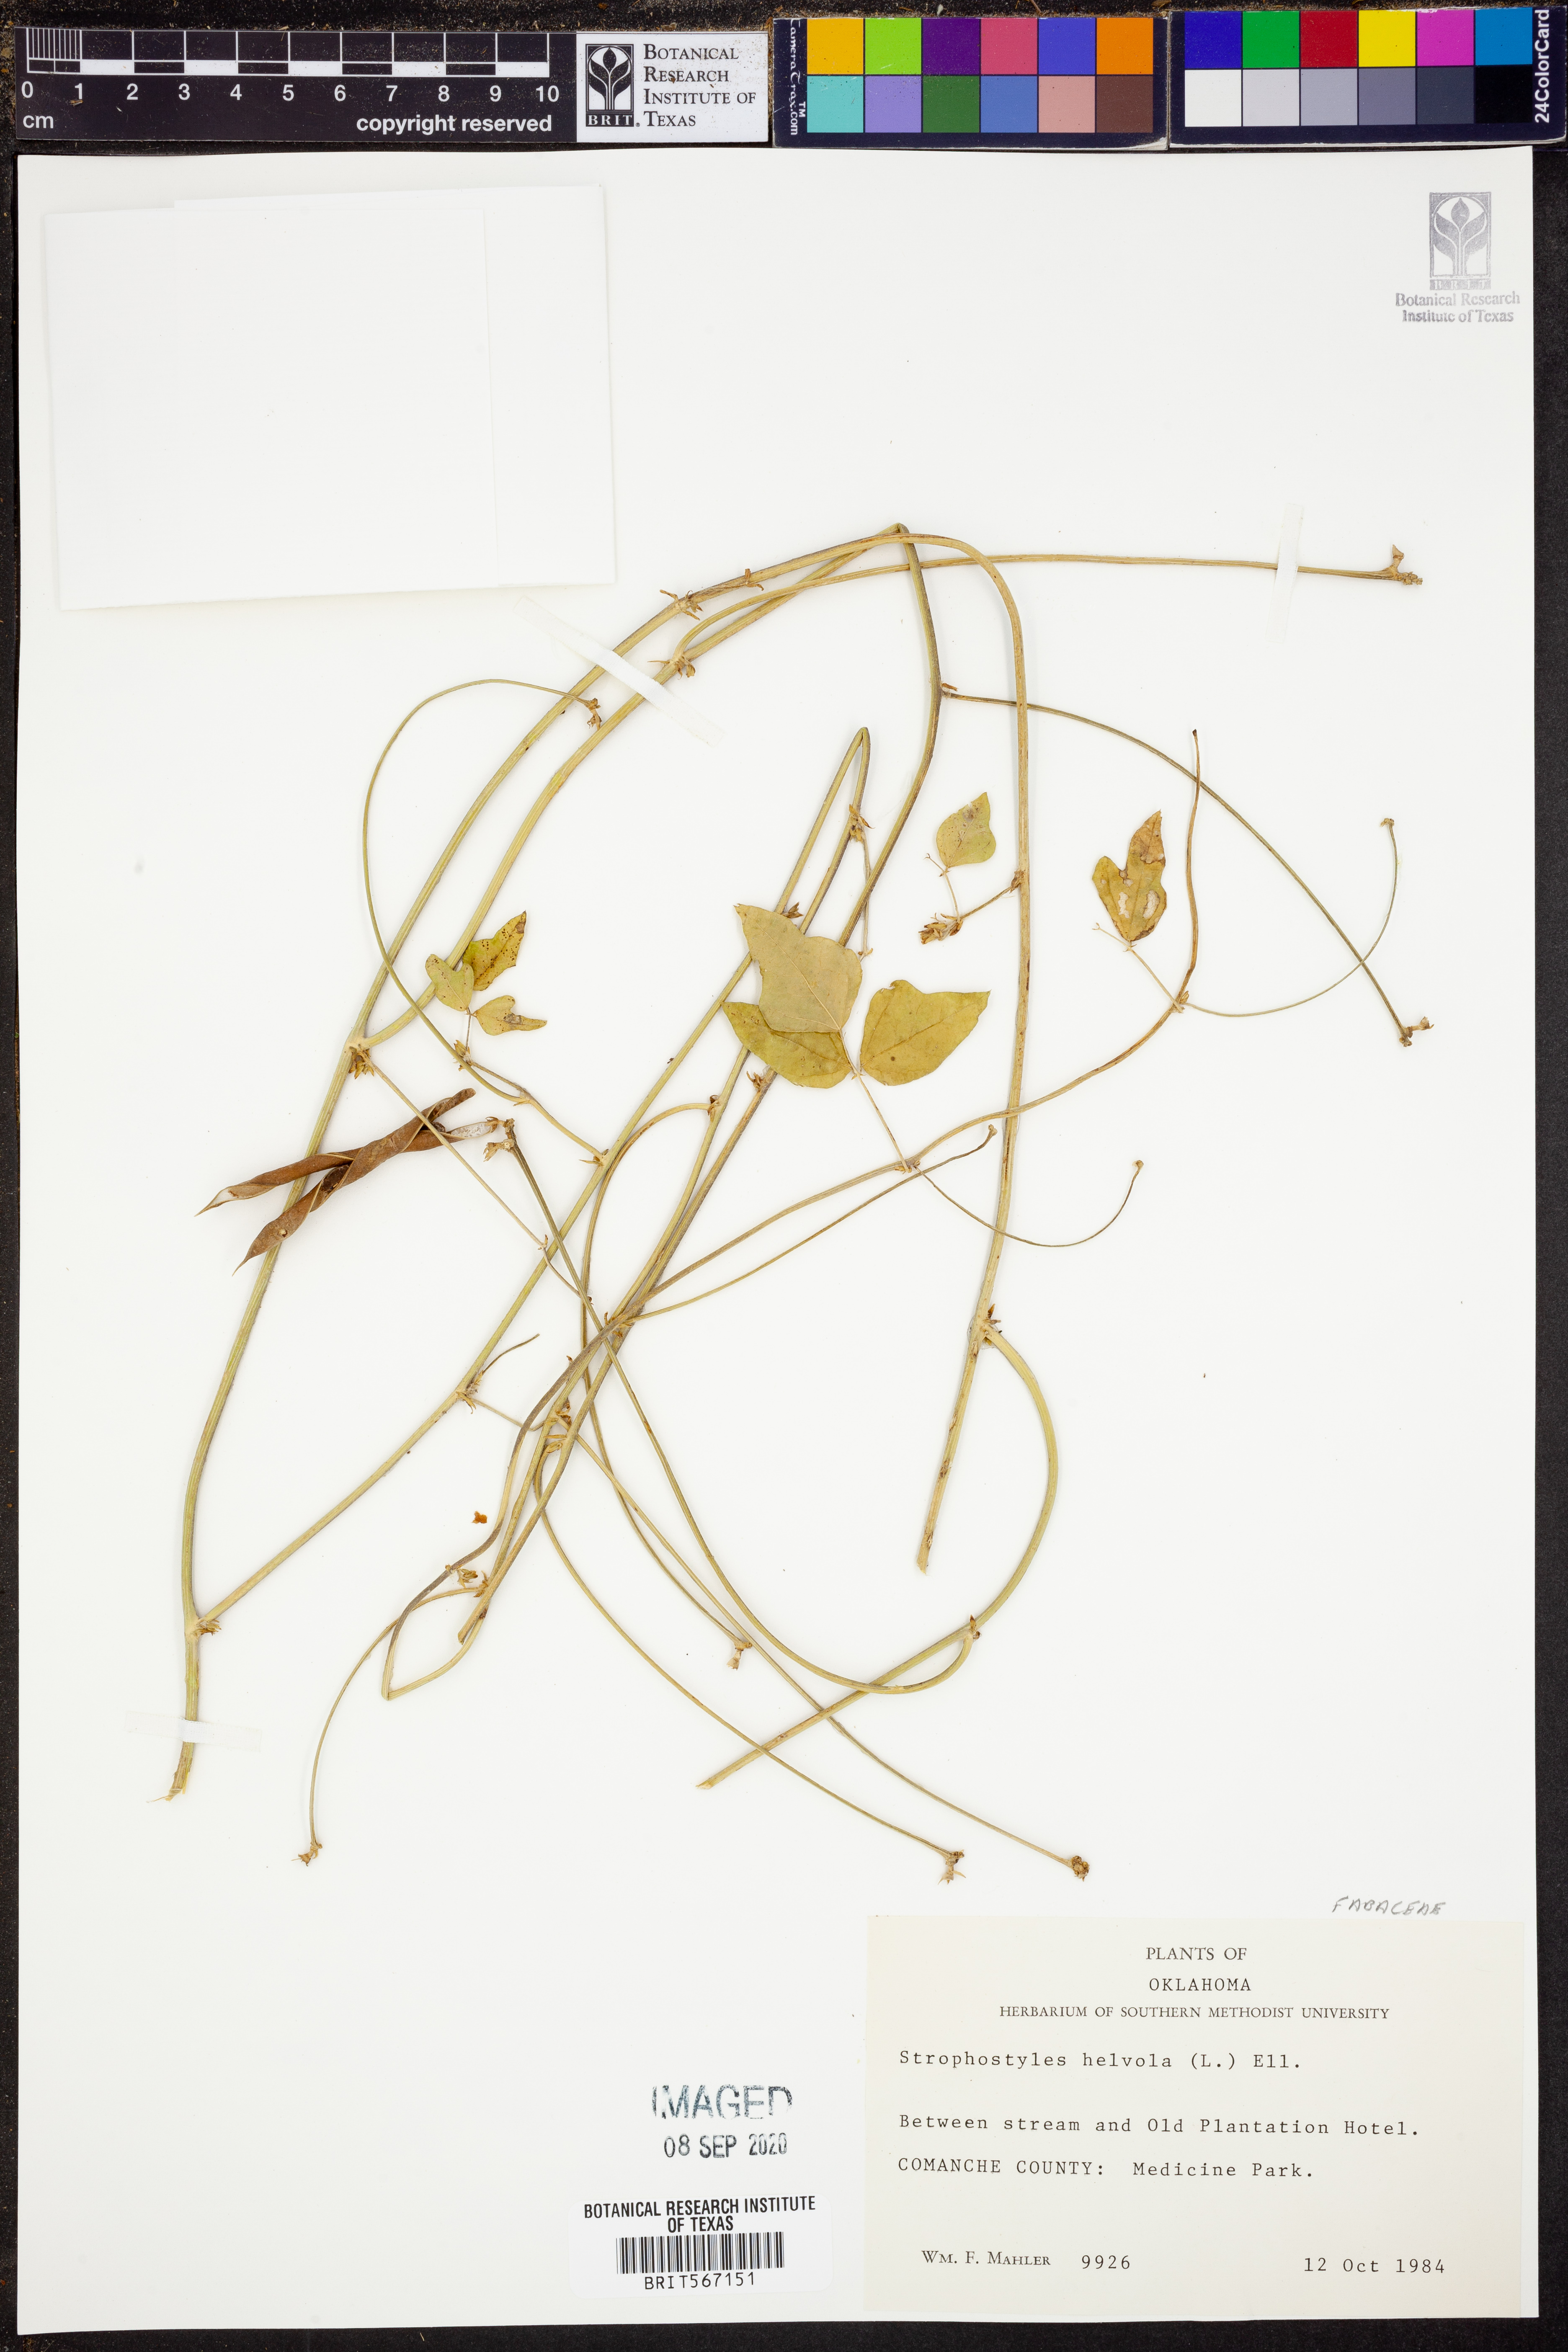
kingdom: Plantae
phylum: Tracheophyta
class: Magnoliopsida
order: Fabales
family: Fabaceae
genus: Strophostyles
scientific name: Strophostyles helvola
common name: Trailing wild bean
